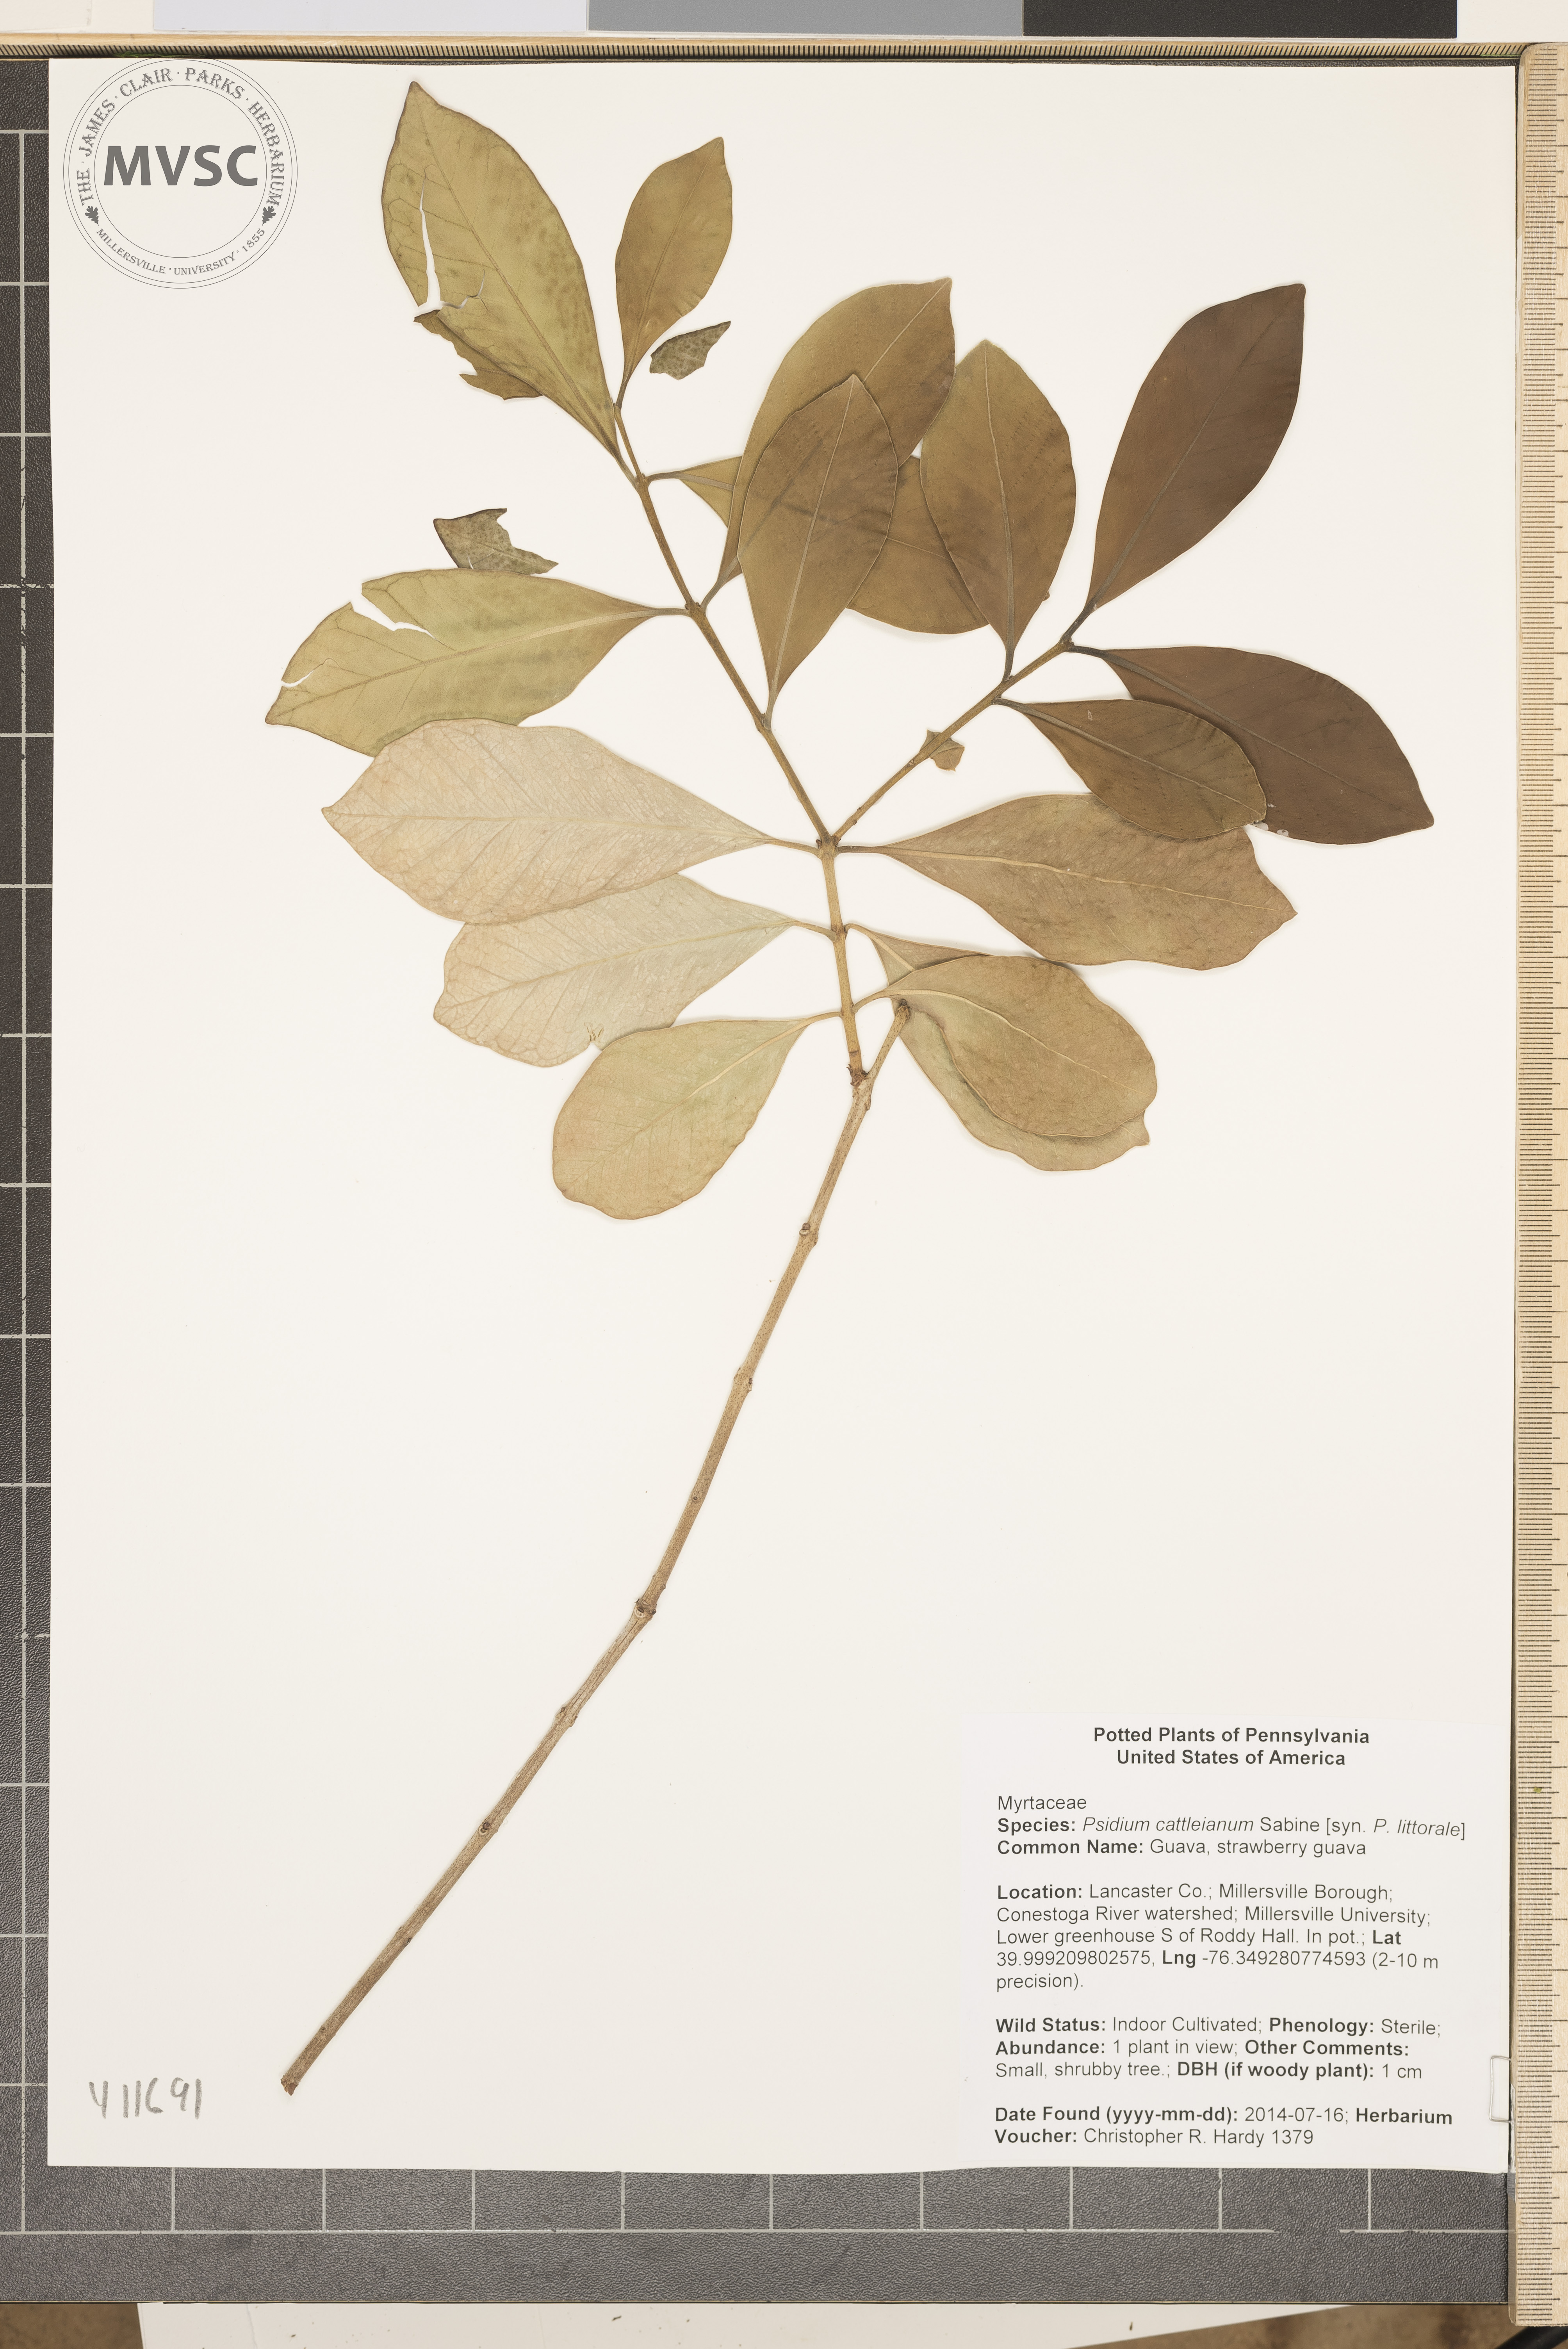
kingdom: Plantae
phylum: Tracheophyta
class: Magnoliopsida
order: Myrtales
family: Myrtaceae
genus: Psidium
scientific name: Psidium cattleianum
